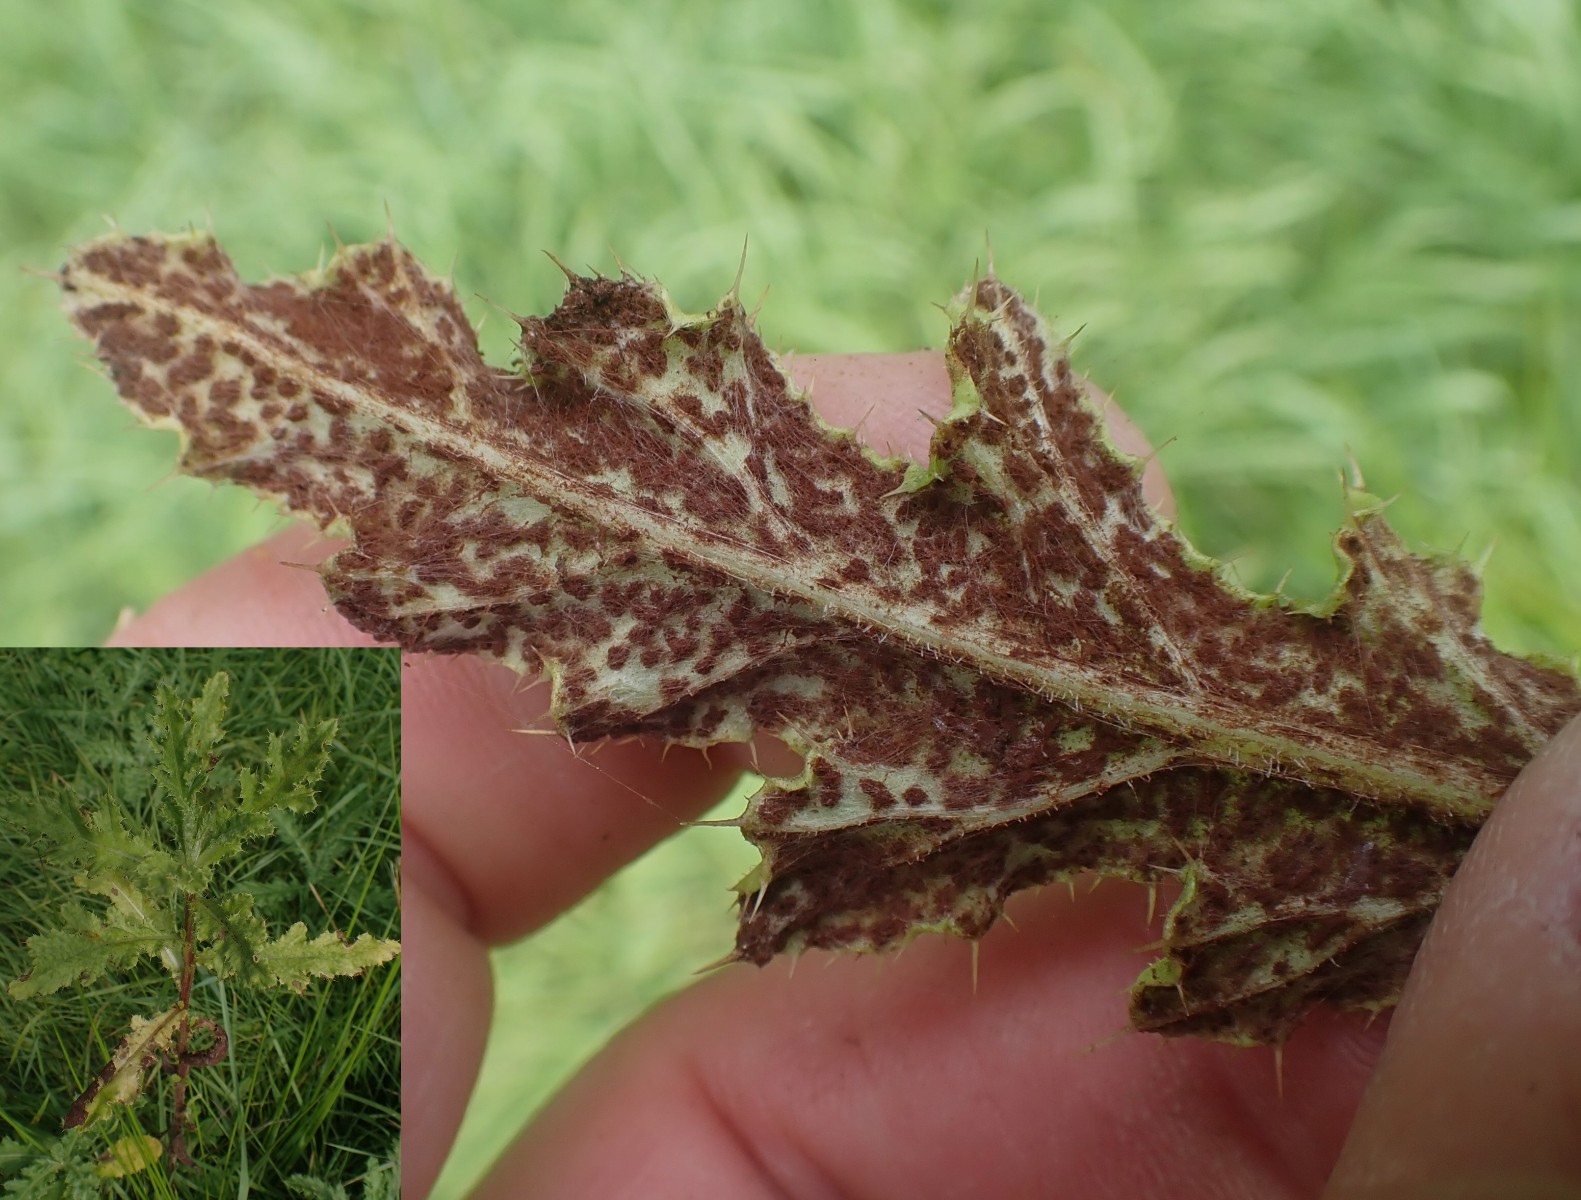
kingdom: Fungi
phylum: Basidiomycota
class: Pucciniomycetes
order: Pucciniales
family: Pucciniaceae
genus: Puccinia
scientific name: Puccinia suaveolens
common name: tidsel-tvecellerust
